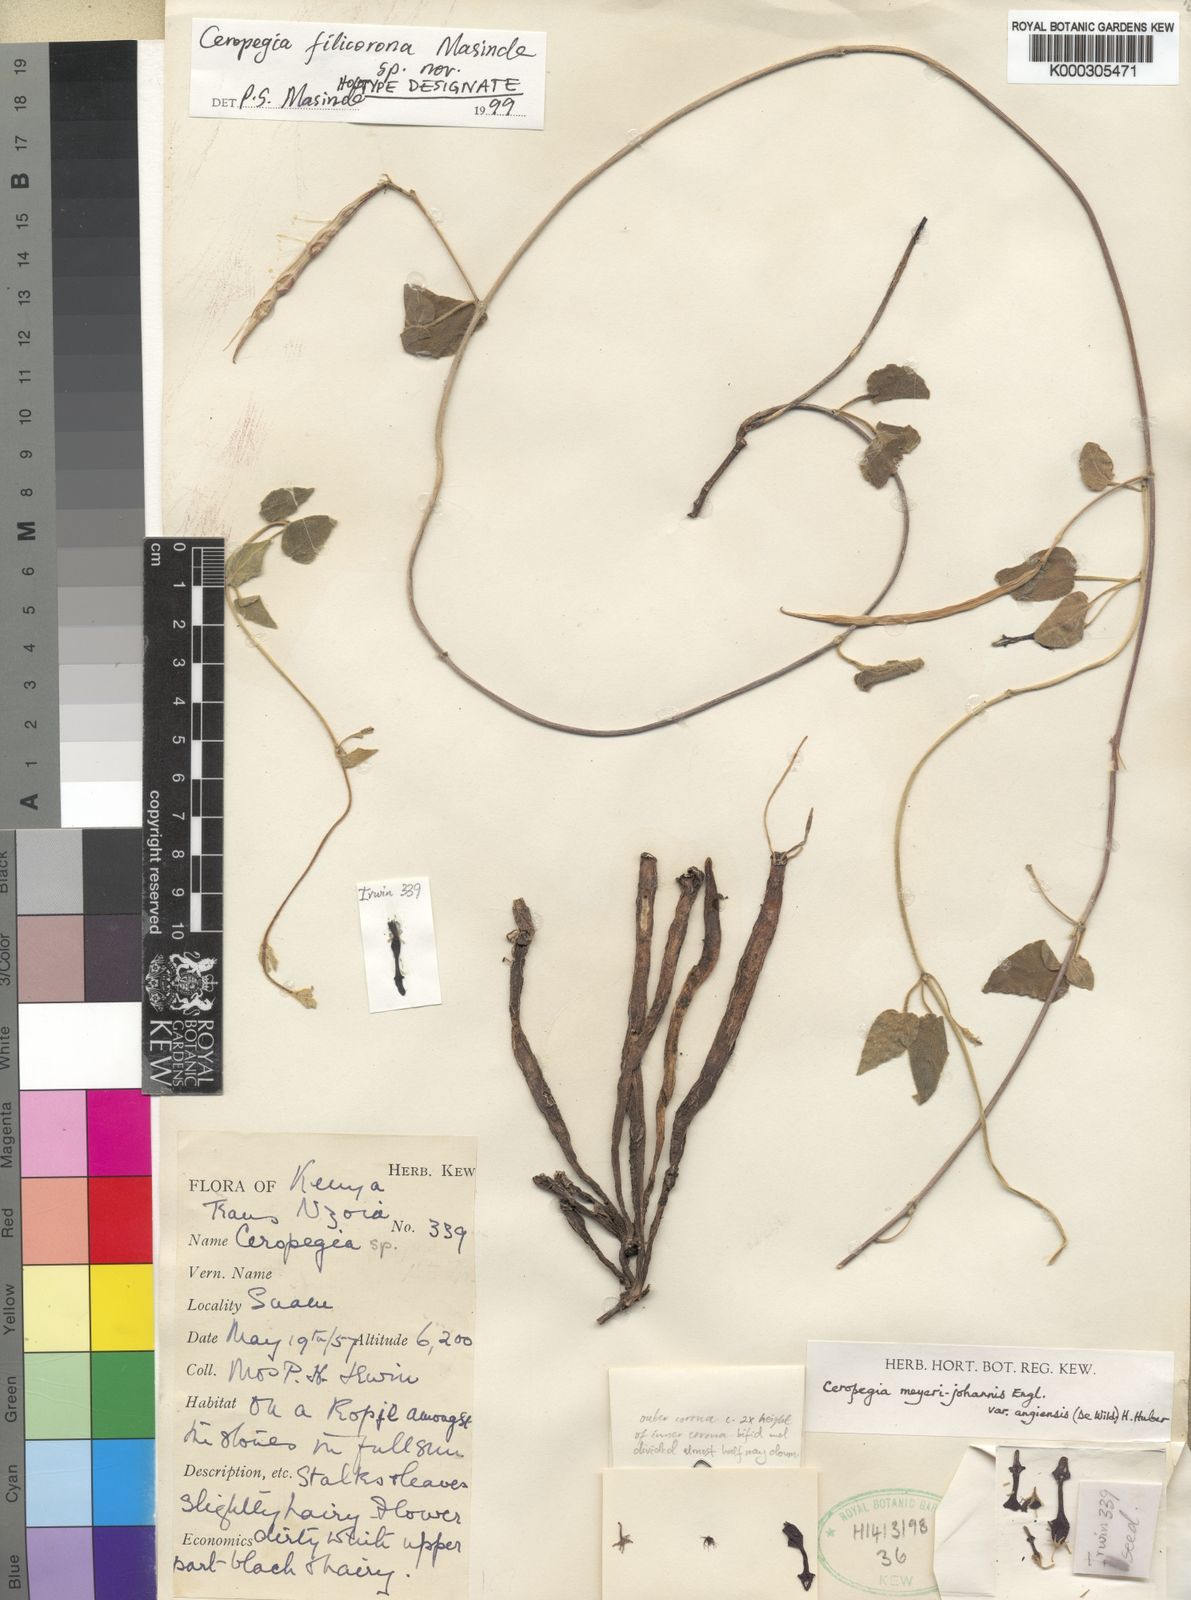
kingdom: Plantae
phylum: Tracheophyta
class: Magnoliopsida
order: Gentianales
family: Apocynaceae
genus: Ceropegia
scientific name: Ceropegia filicorona
